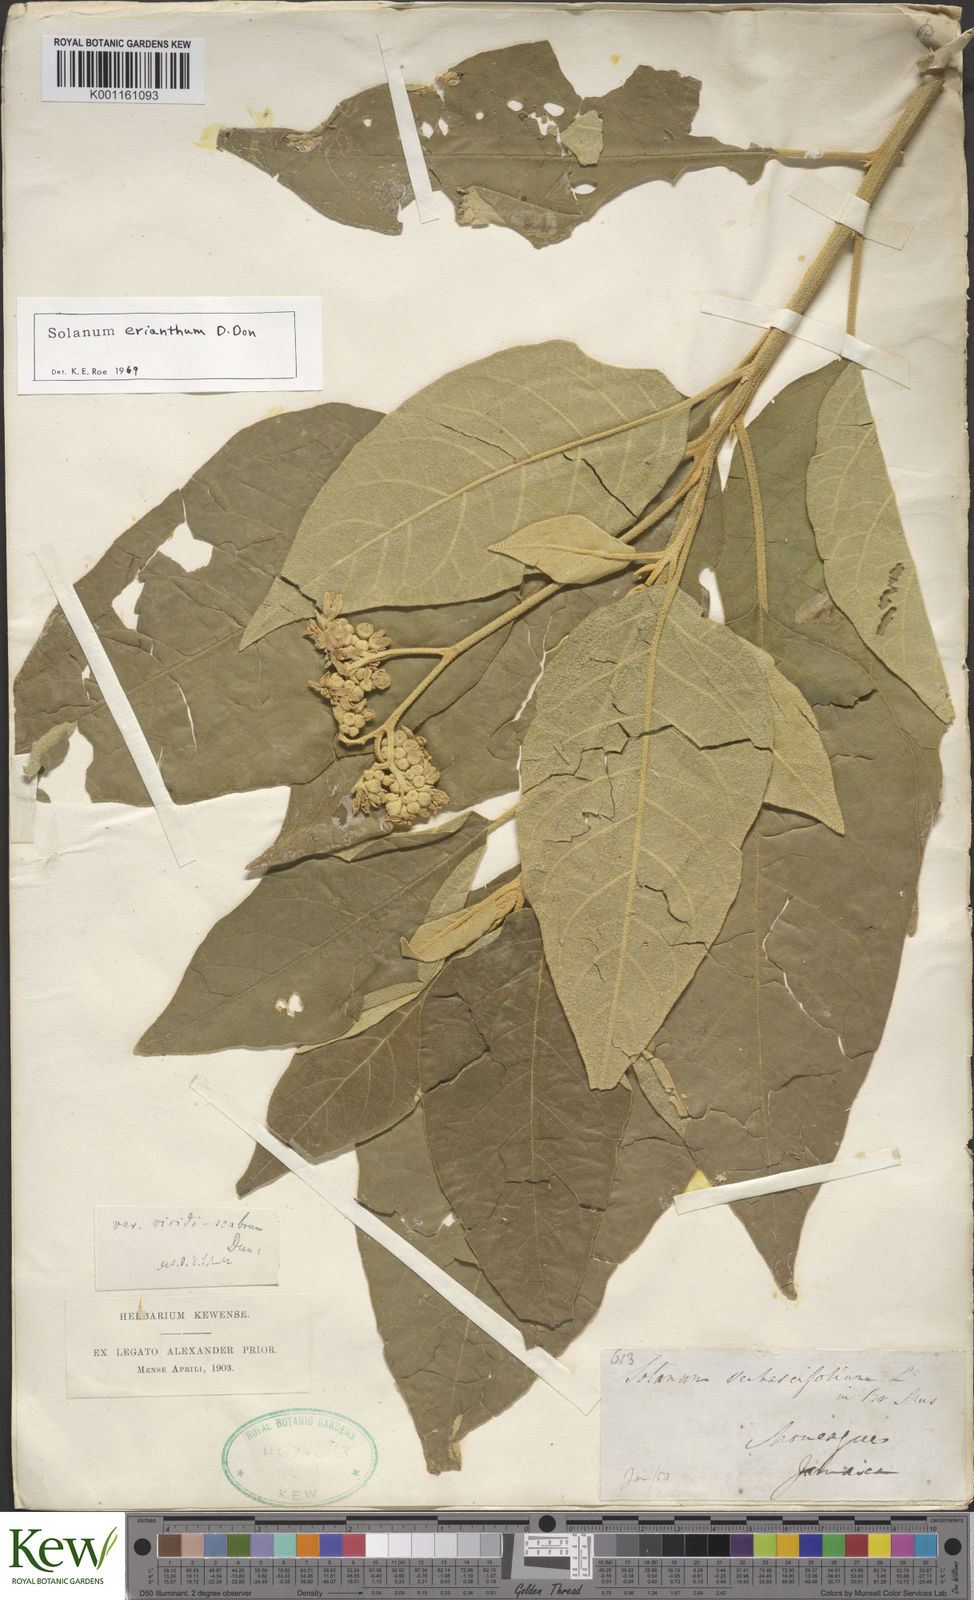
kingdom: Plantae
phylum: Tracheophyta
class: Magnoliopsida
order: Solanales
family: Solanaceae
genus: Solanum
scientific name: Solanum erianthum
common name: Tobacco-tree
